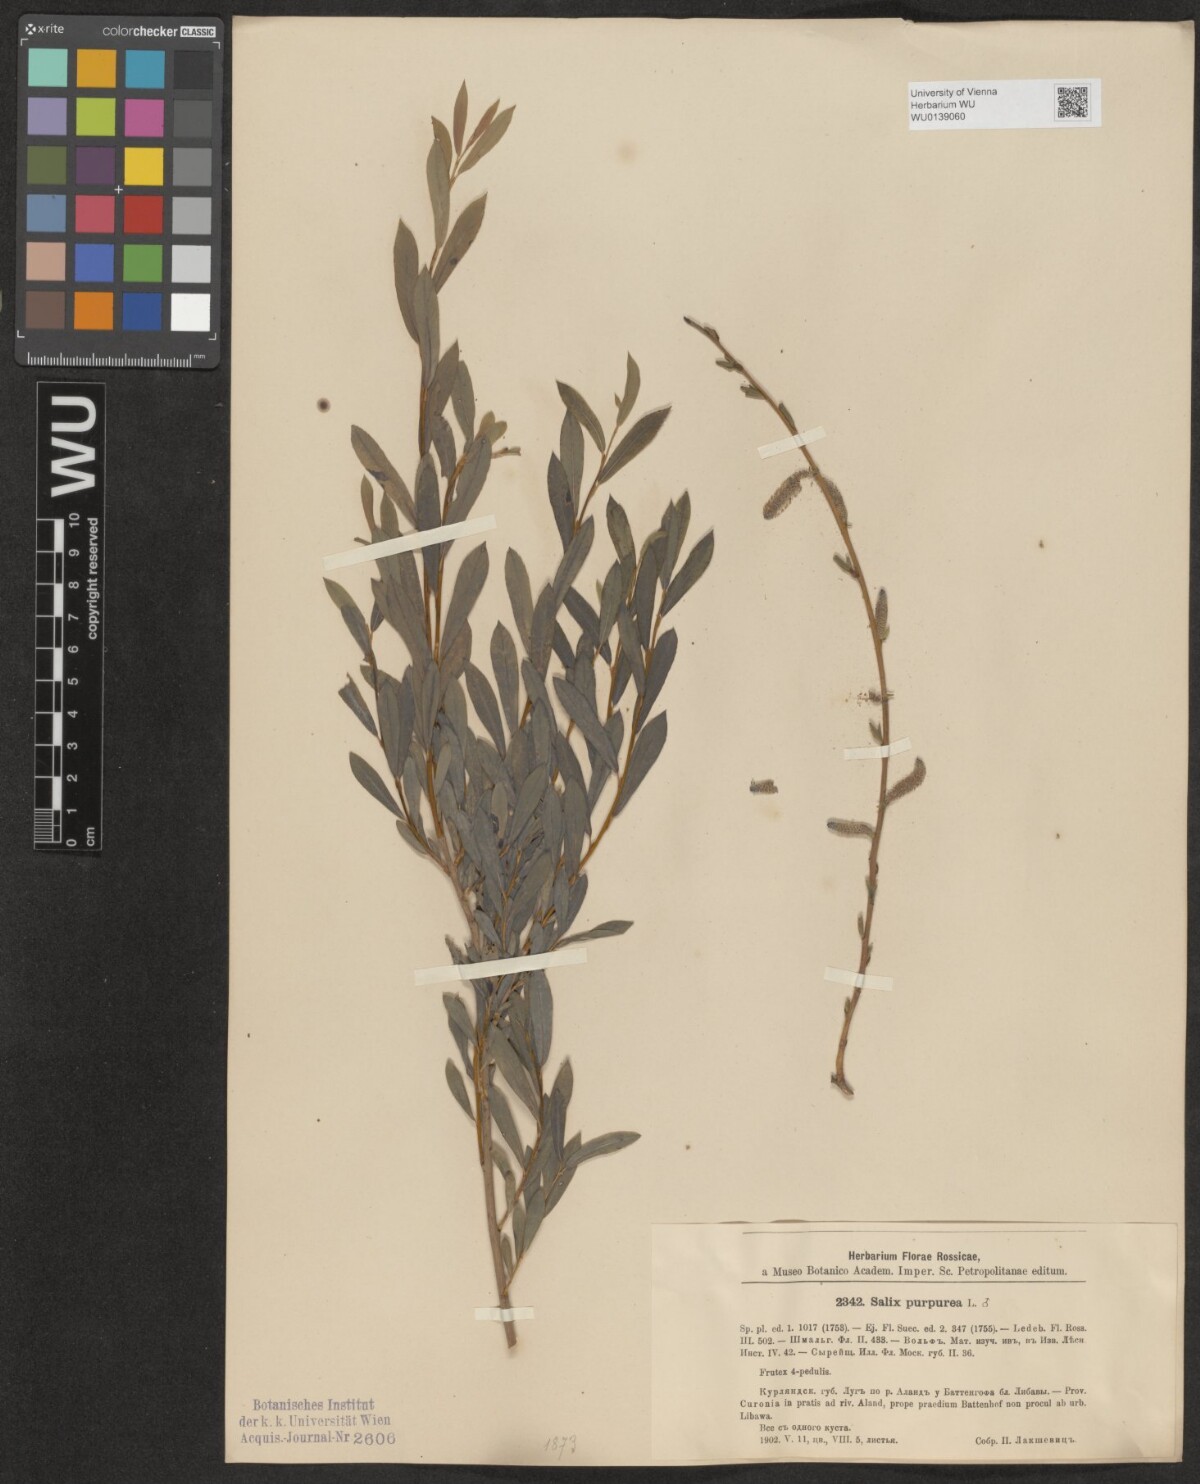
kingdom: Plantae
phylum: Tracheophyta
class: Magnoliopsida
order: Malpighiales
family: Salicaceae
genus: Salix
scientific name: Salix purpurea
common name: Purple willow
